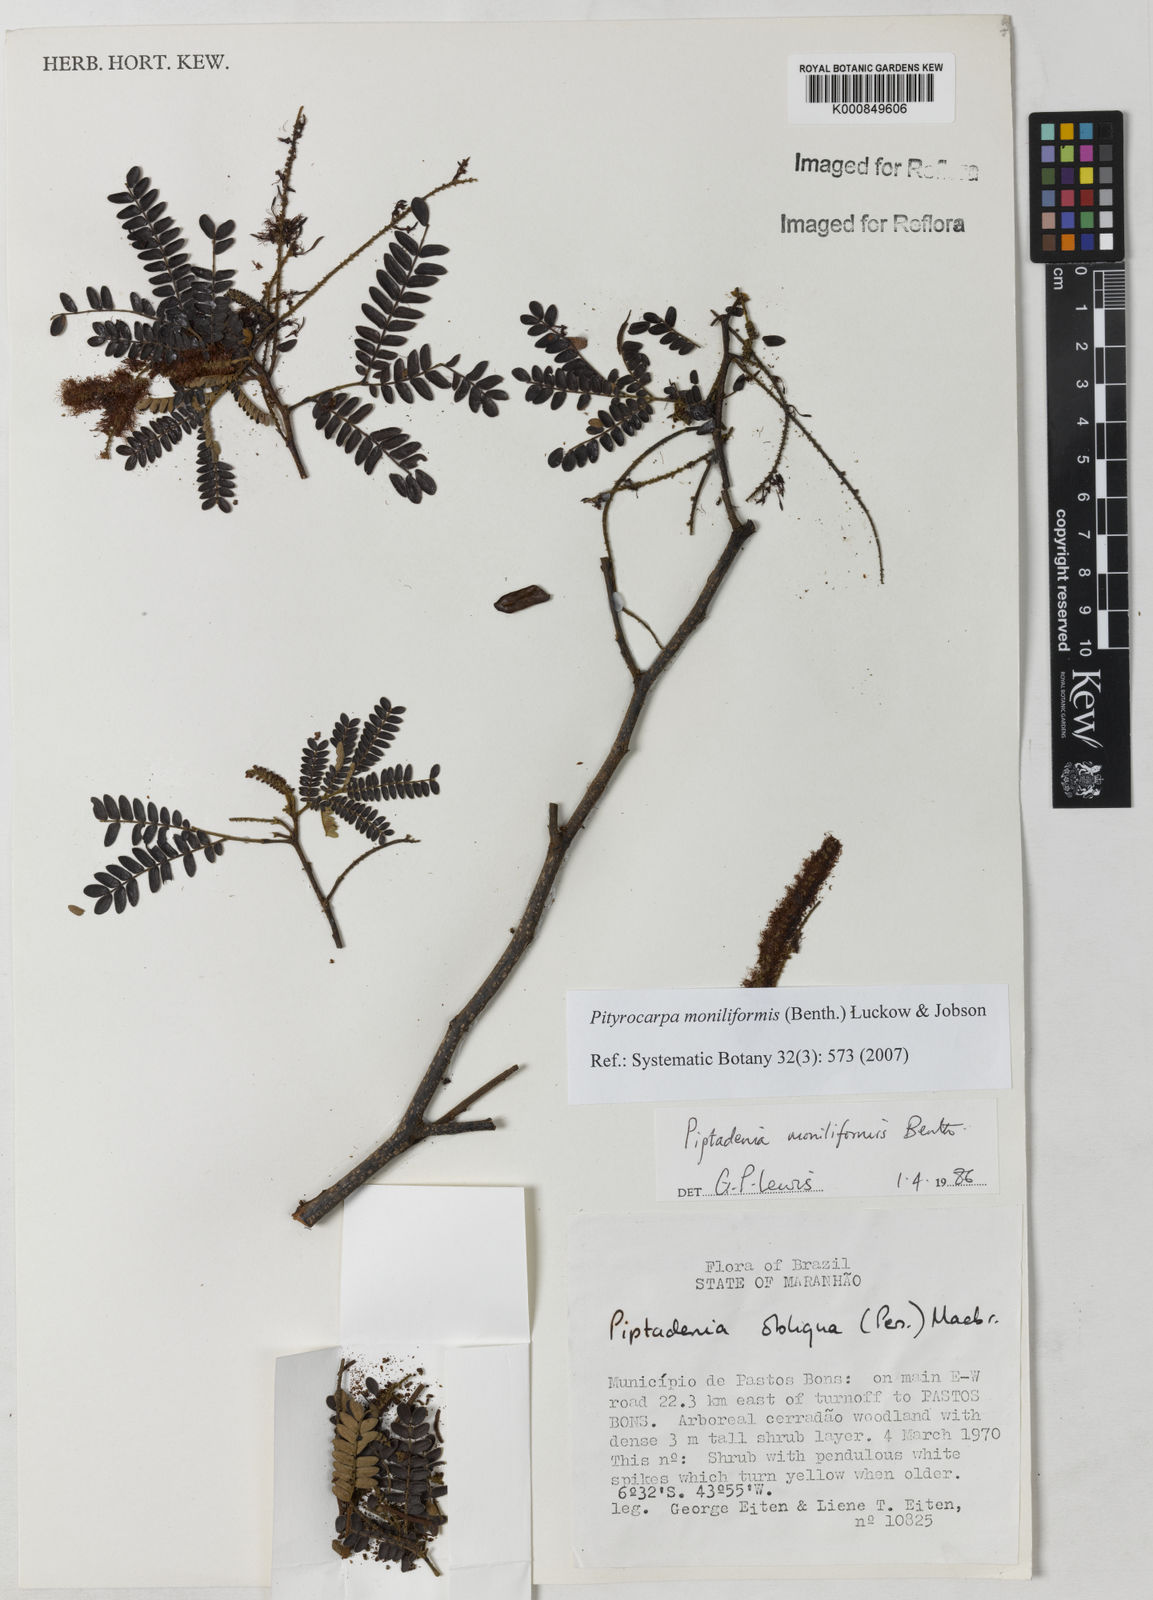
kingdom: Plantae
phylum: Tracheophyta
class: Magnoliopsida
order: Fabales
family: Fabaceae
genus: Pityrocarpa
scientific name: Pityrocarpa moniliformis
